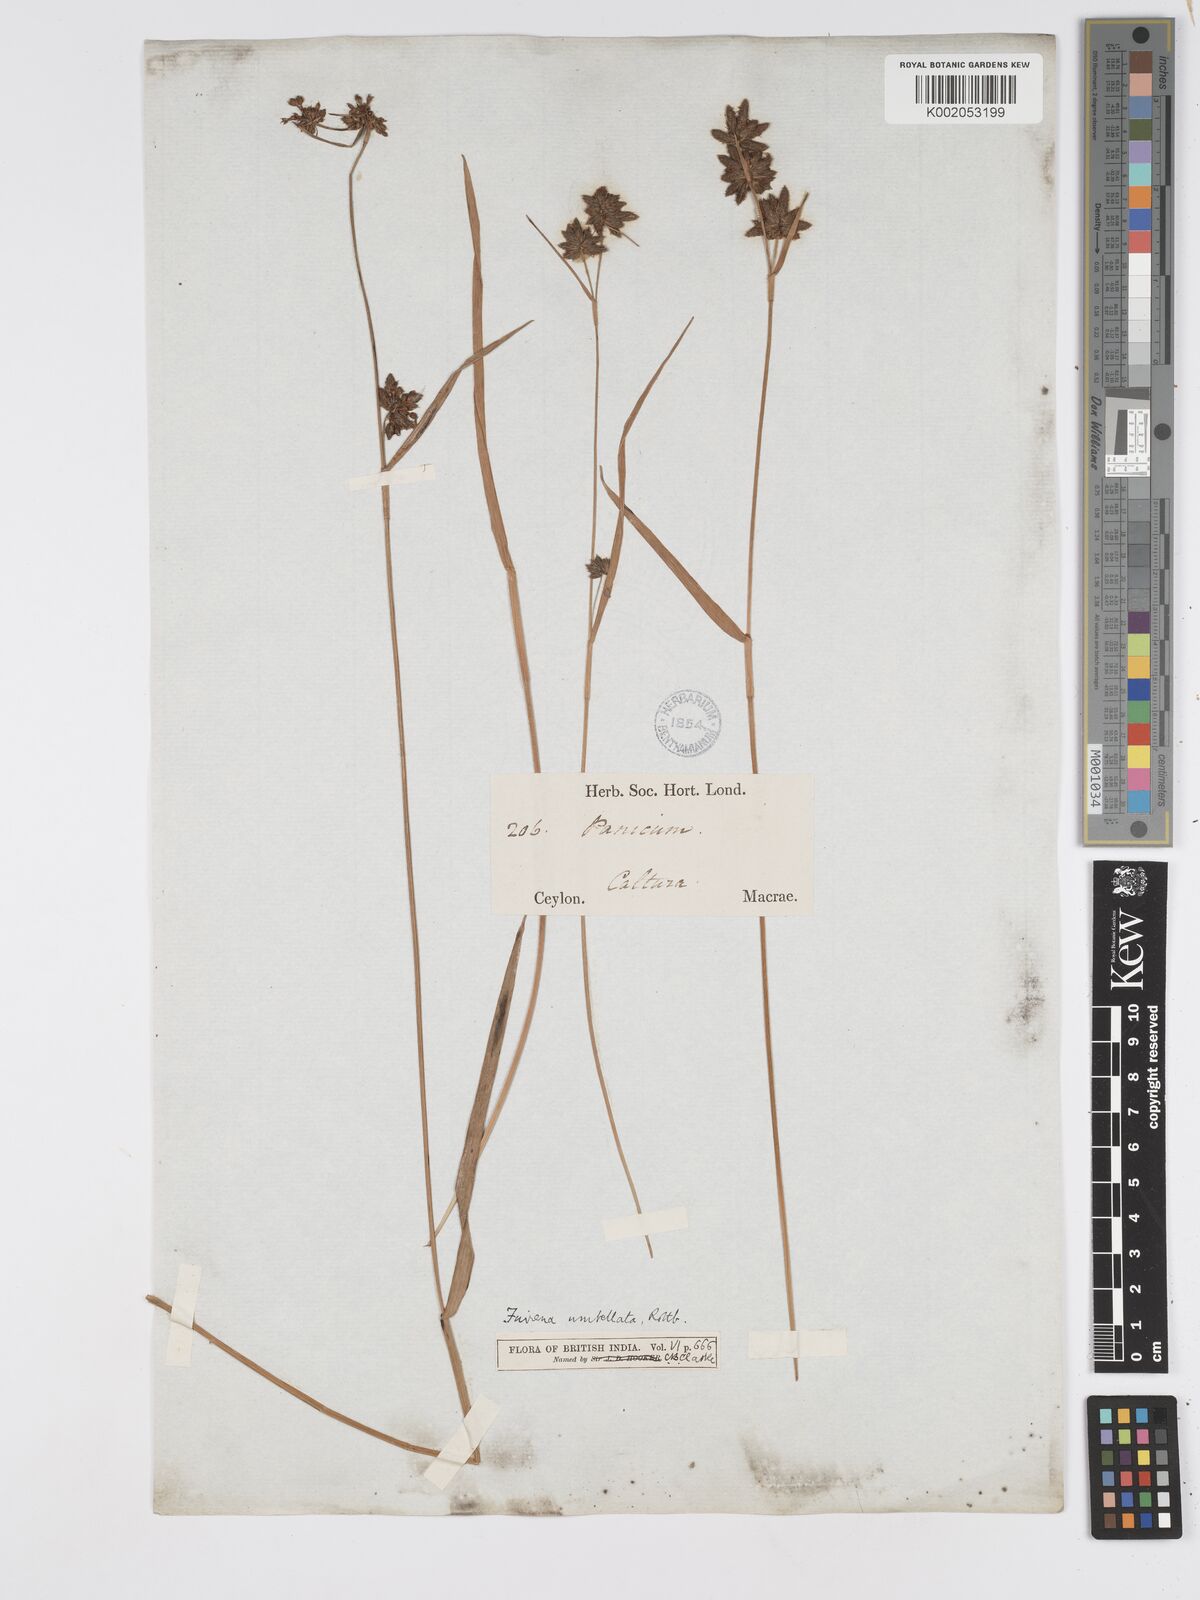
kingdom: Plantae
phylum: Tracheophyta
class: Liliopsida
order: Poales
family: Cyperaceae
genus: Fuirena
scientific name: Fuirena umbellata
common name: Yefen
